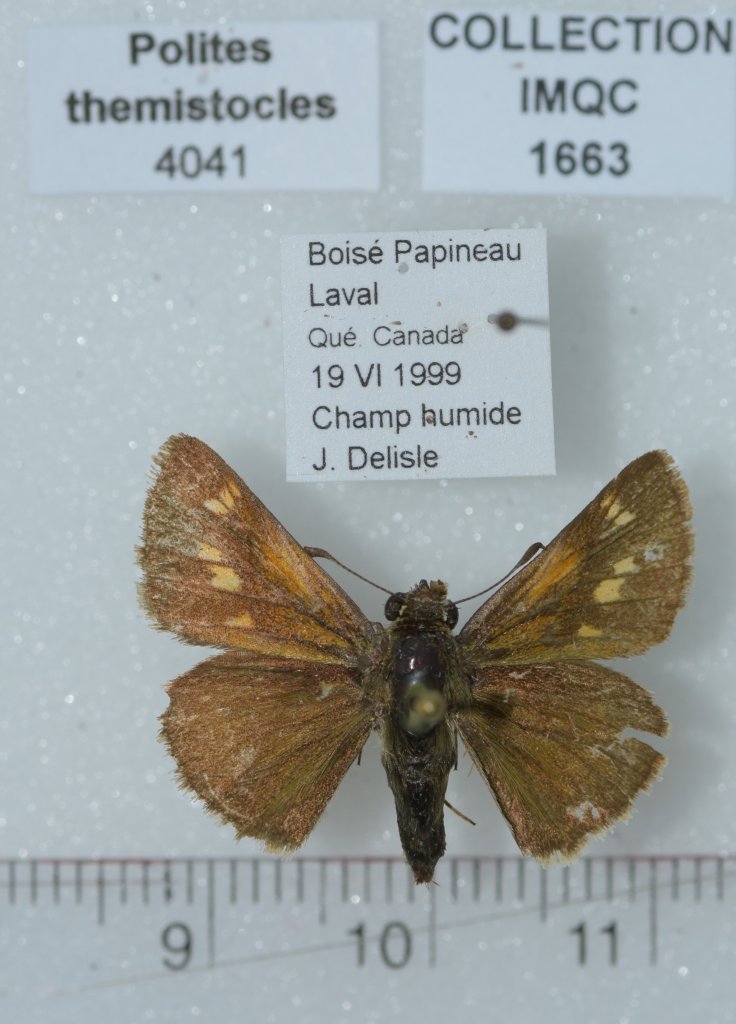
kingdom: Animalia
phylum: Arthropoda
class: Insecta
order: Lepidoptera
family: Hesperiidae
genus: Polites
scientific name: Polites themistocles
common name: Tawny-edged Skipper
